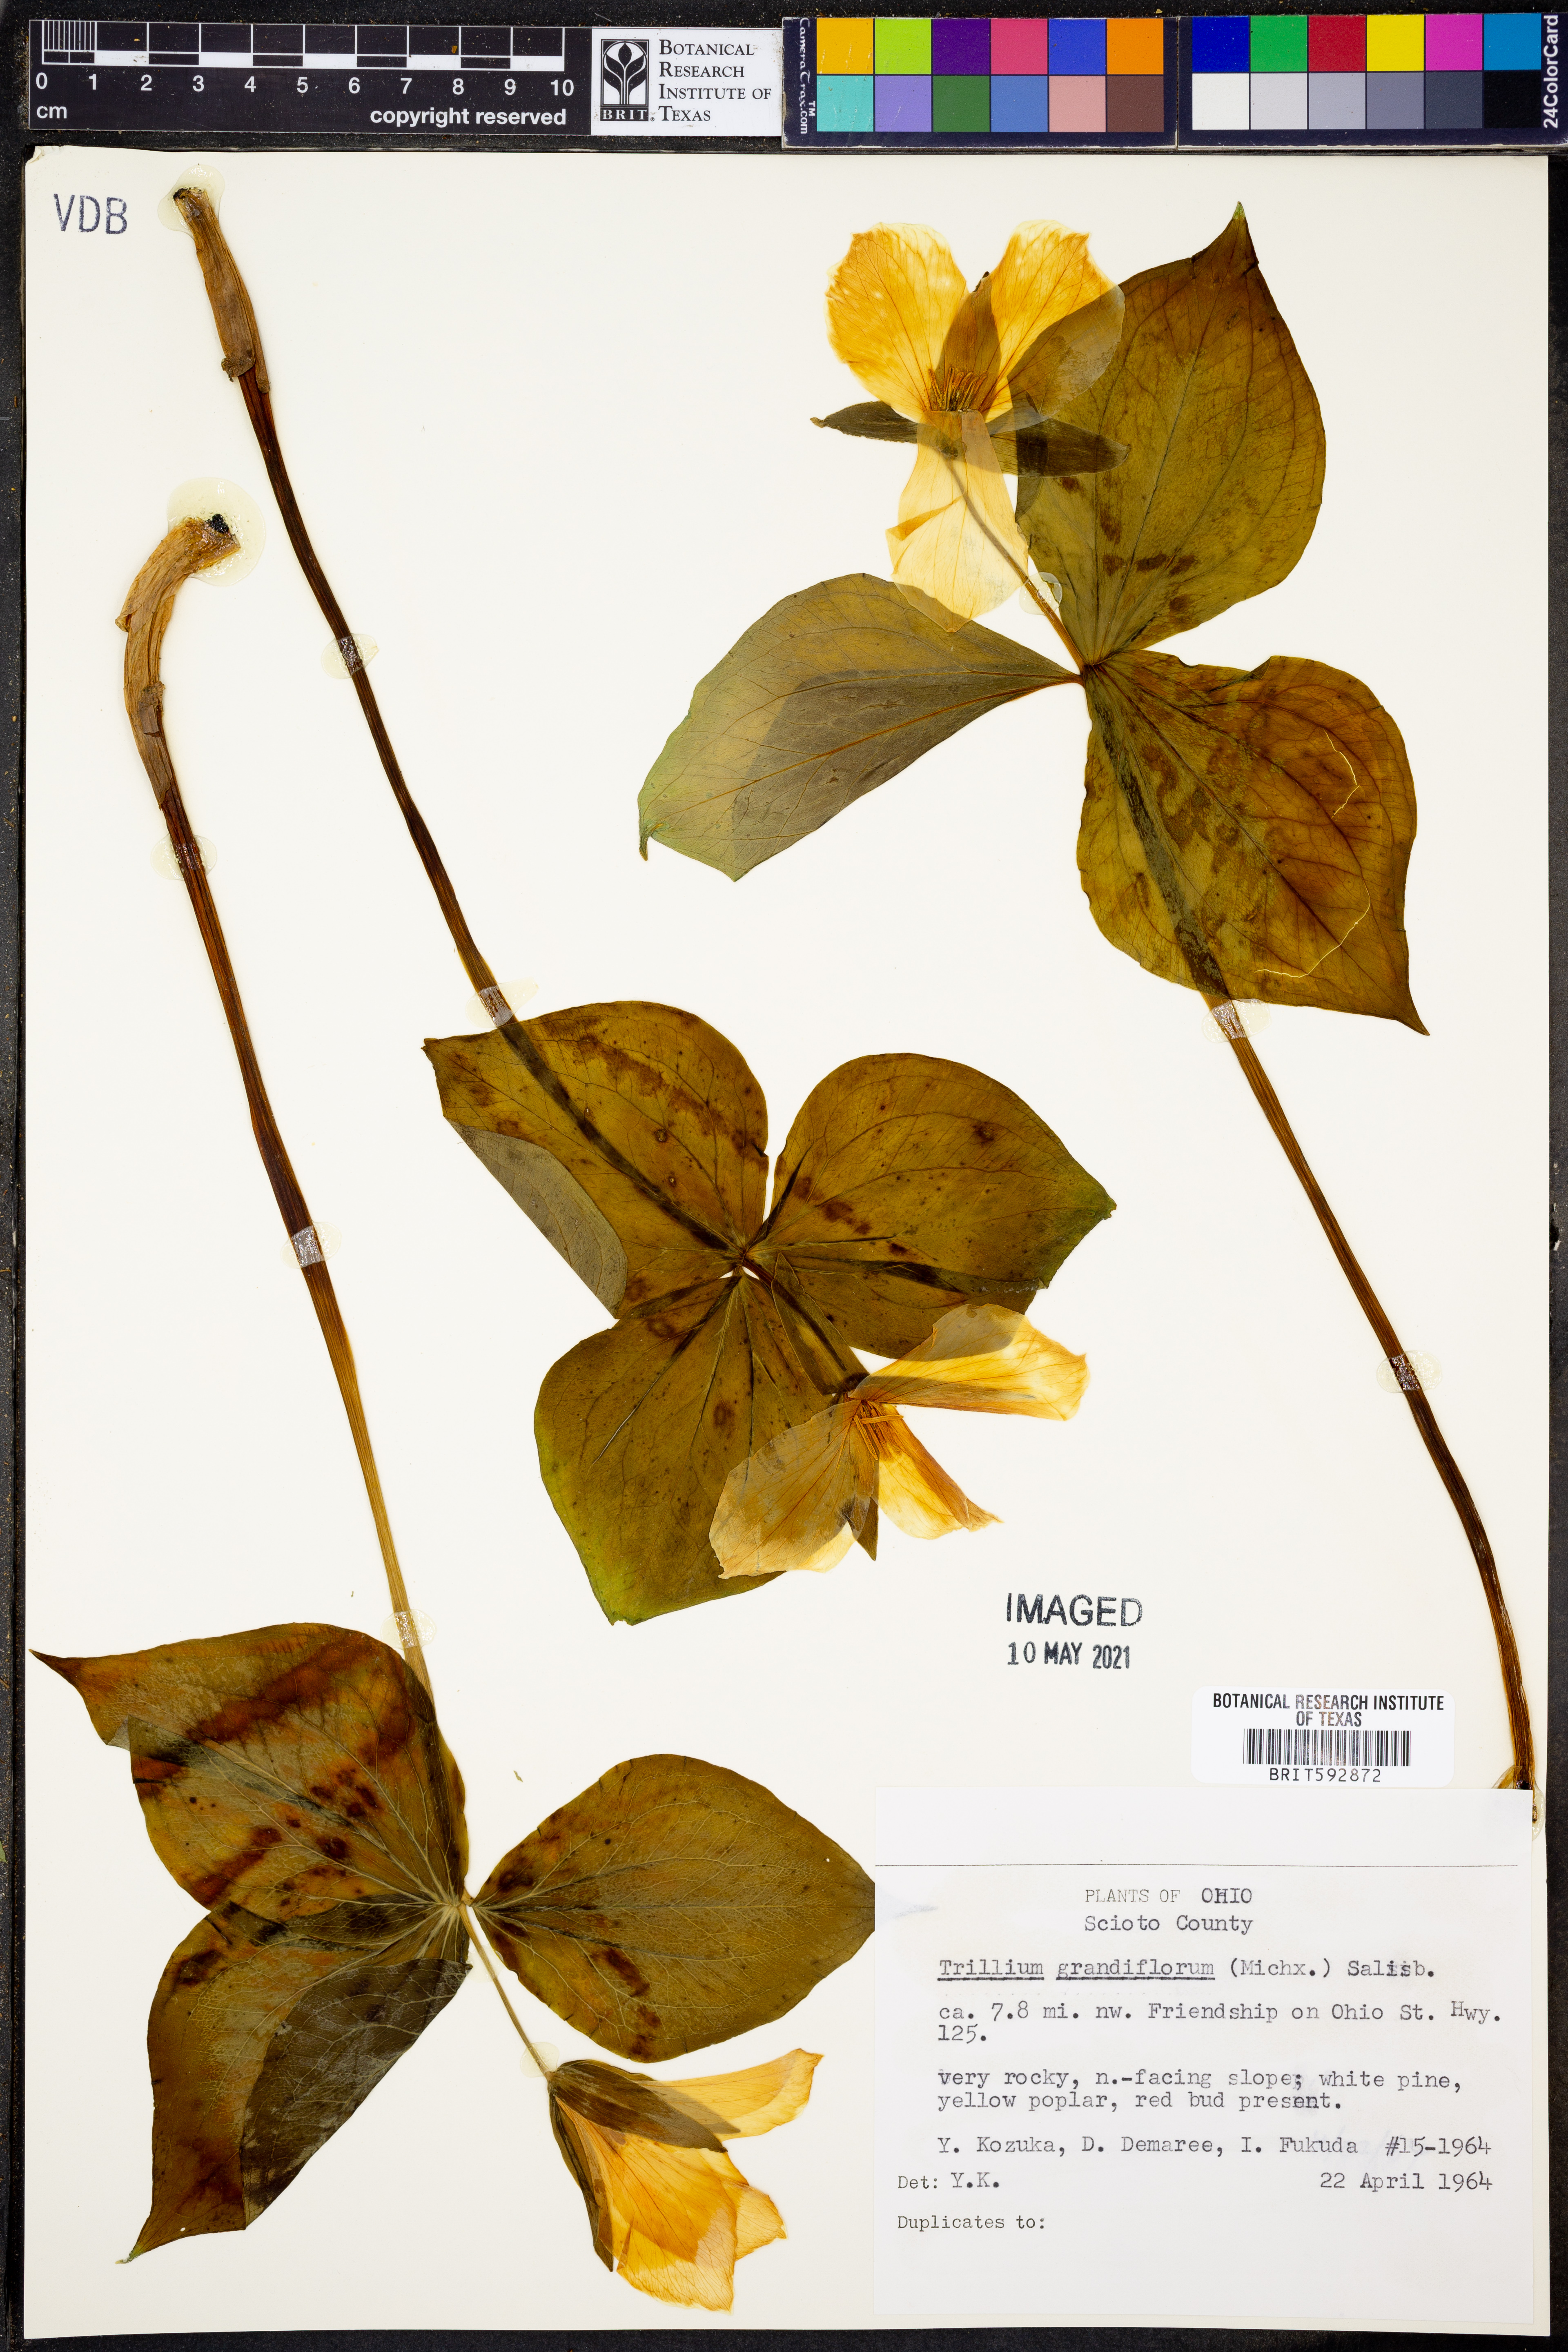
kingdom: Plantae
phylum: Tracheophyta
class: Liliopsida
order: Liliales
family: Melanthiaceae
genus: Trillium
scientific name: Trillium grandiflorum
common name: Great white trillium
